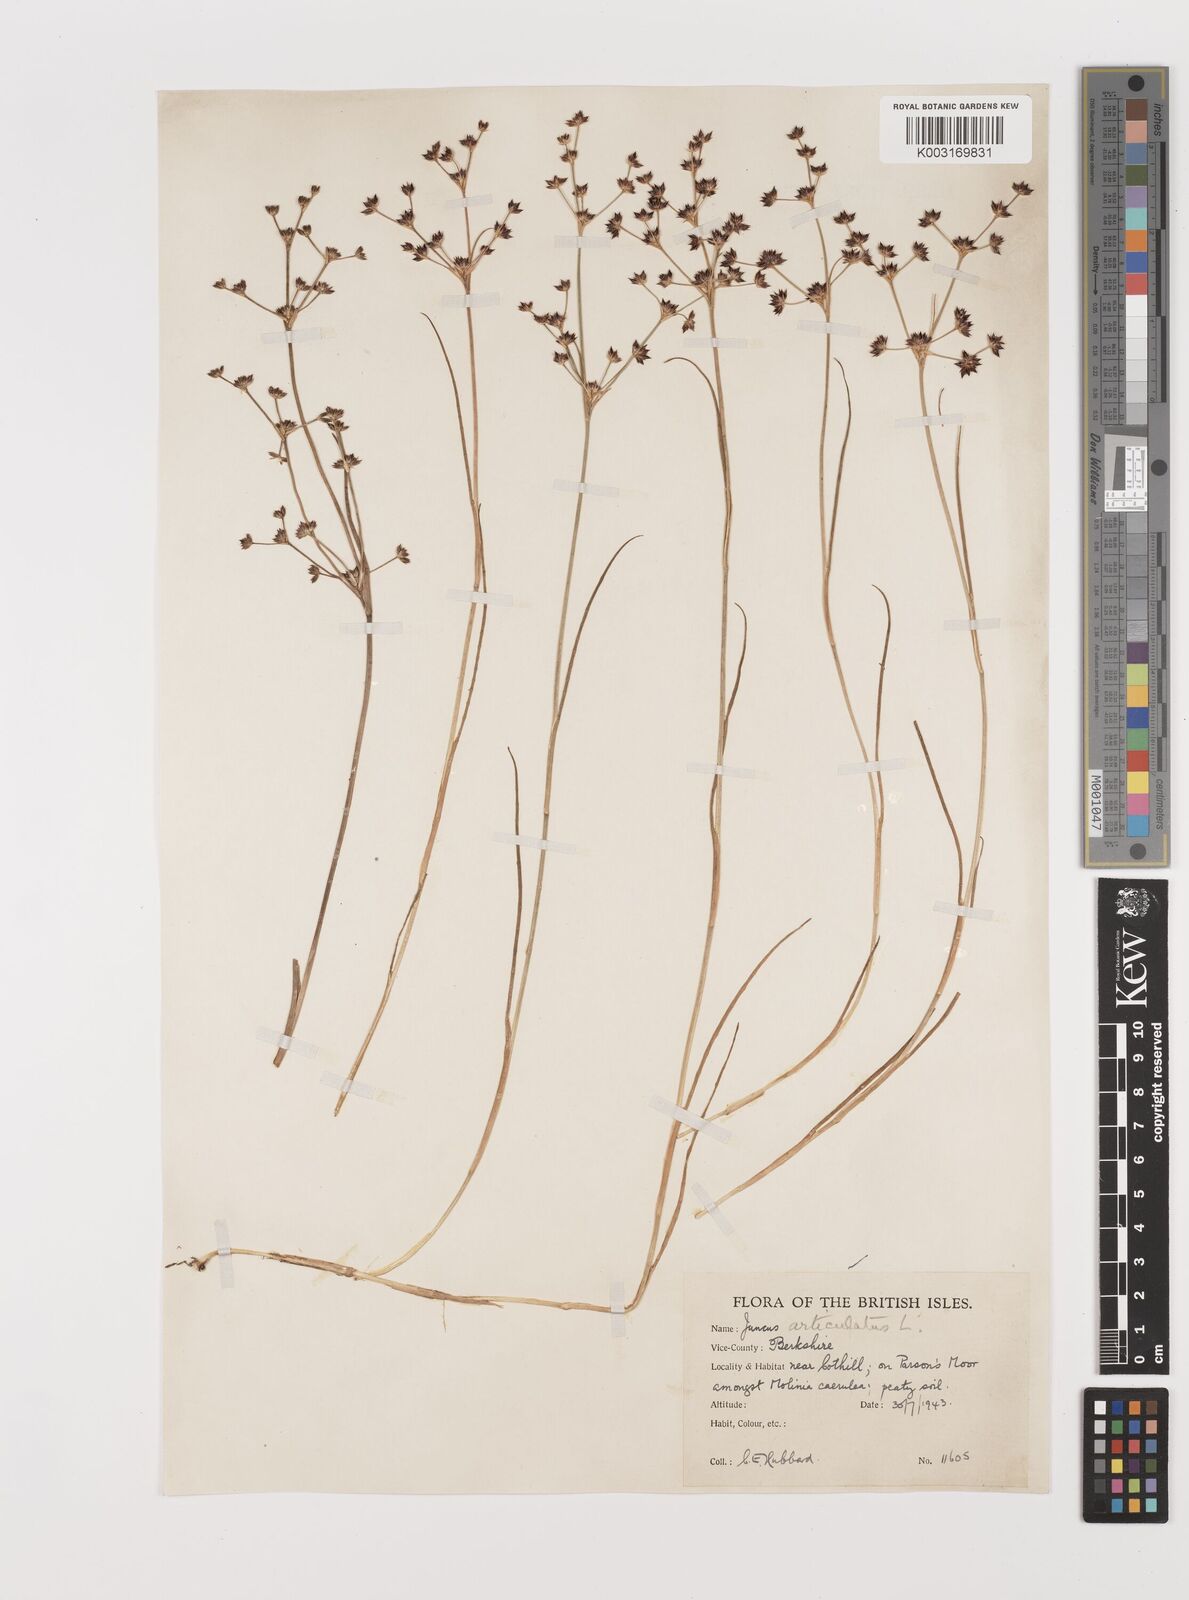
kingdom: Plantae
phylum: Tracheophyta
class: Liliopsida
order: Poales
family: Juncaceae
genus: Juncus
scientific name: Juncus articulatus
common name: Jointed rush
